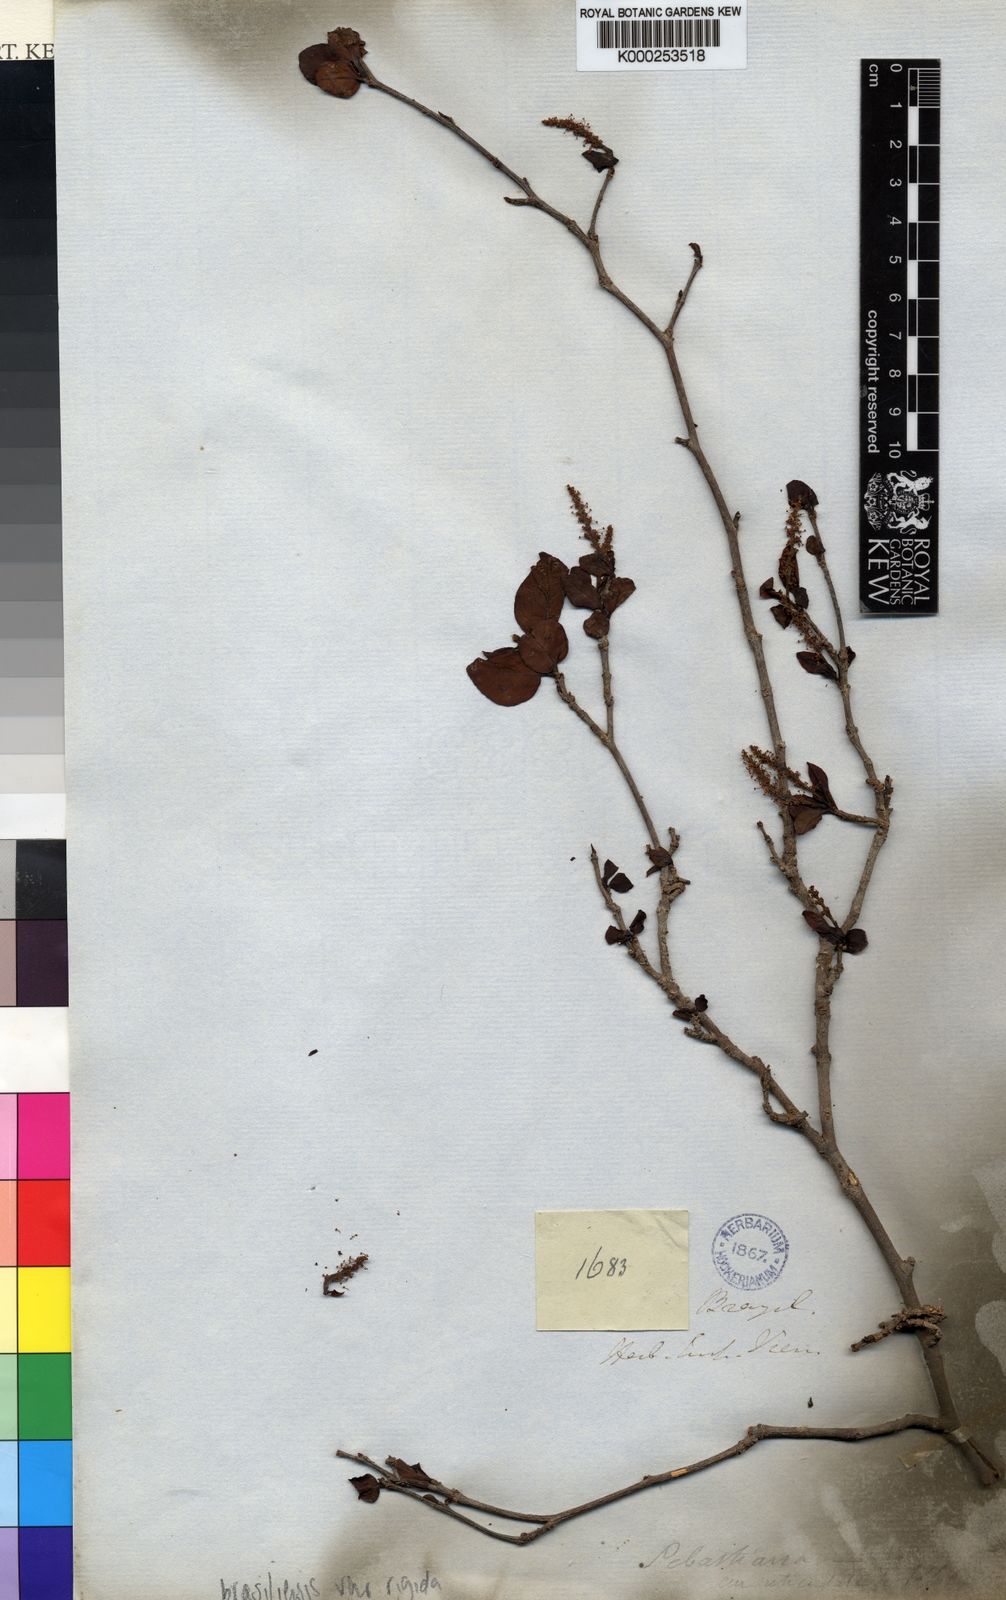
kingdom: Plantae
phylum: Tracheophyta
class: Magnoliopsida
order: Malpighiales
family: Euphorbiaceae
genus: Sebastiania
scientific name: Sebastiania
